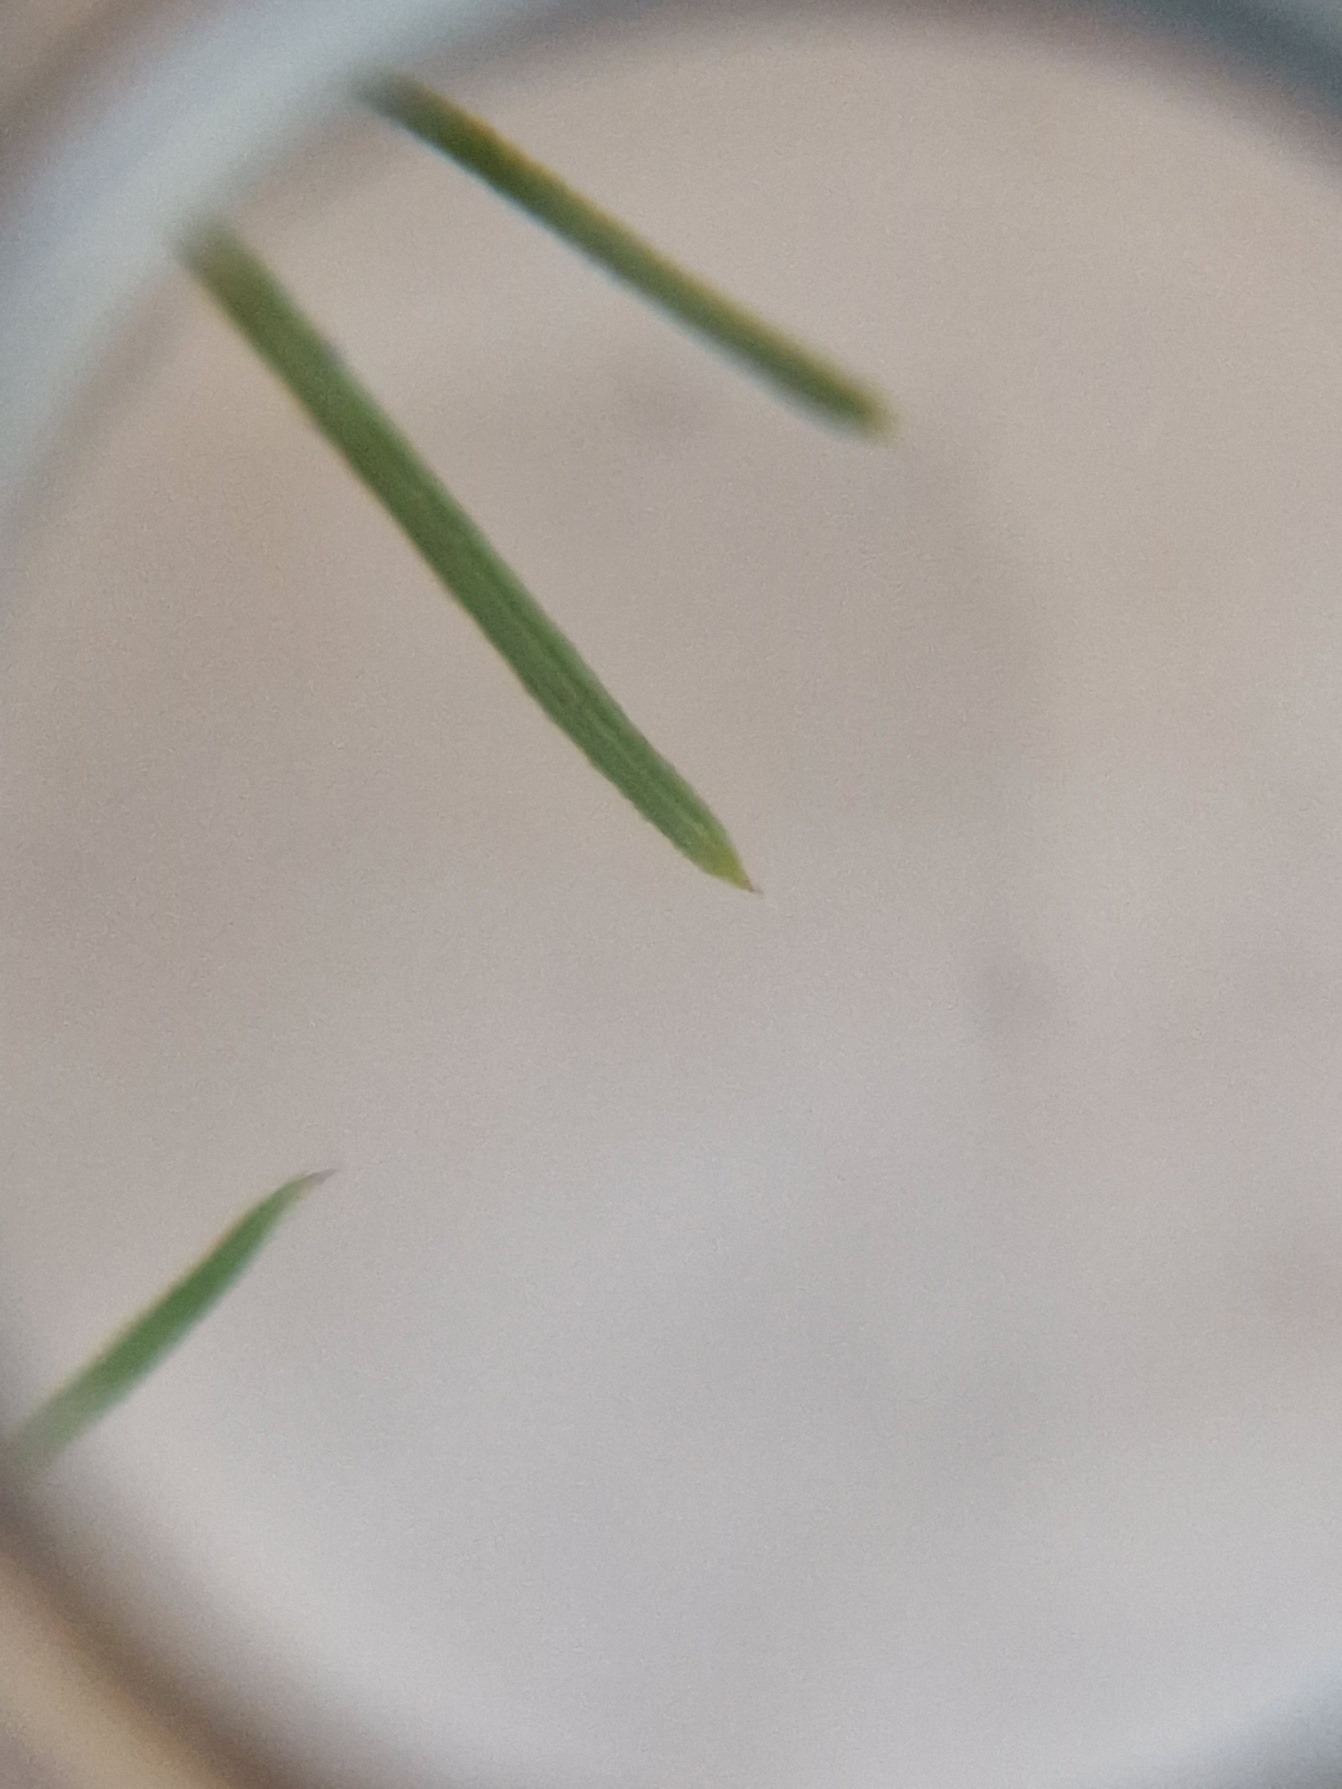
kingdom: Plantae
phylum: Tracheophyta
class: Magnoliopsida
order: Gentianales
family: Rubiaceae
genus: Galium
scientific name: Galium verum
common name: Gul snerre
